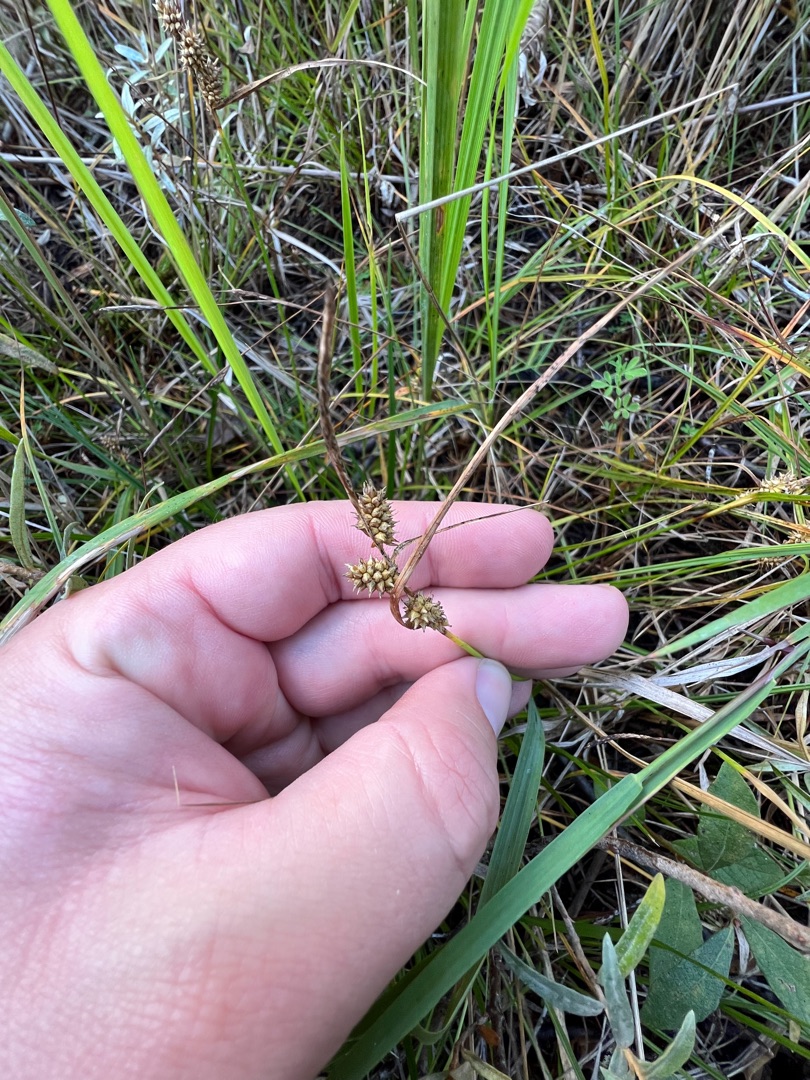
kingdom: Plantae
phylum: Tracheophyta
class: Liliopsida
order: Poales
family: Cyperaceae
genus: Carex
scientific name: Carex
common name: Starslægten
